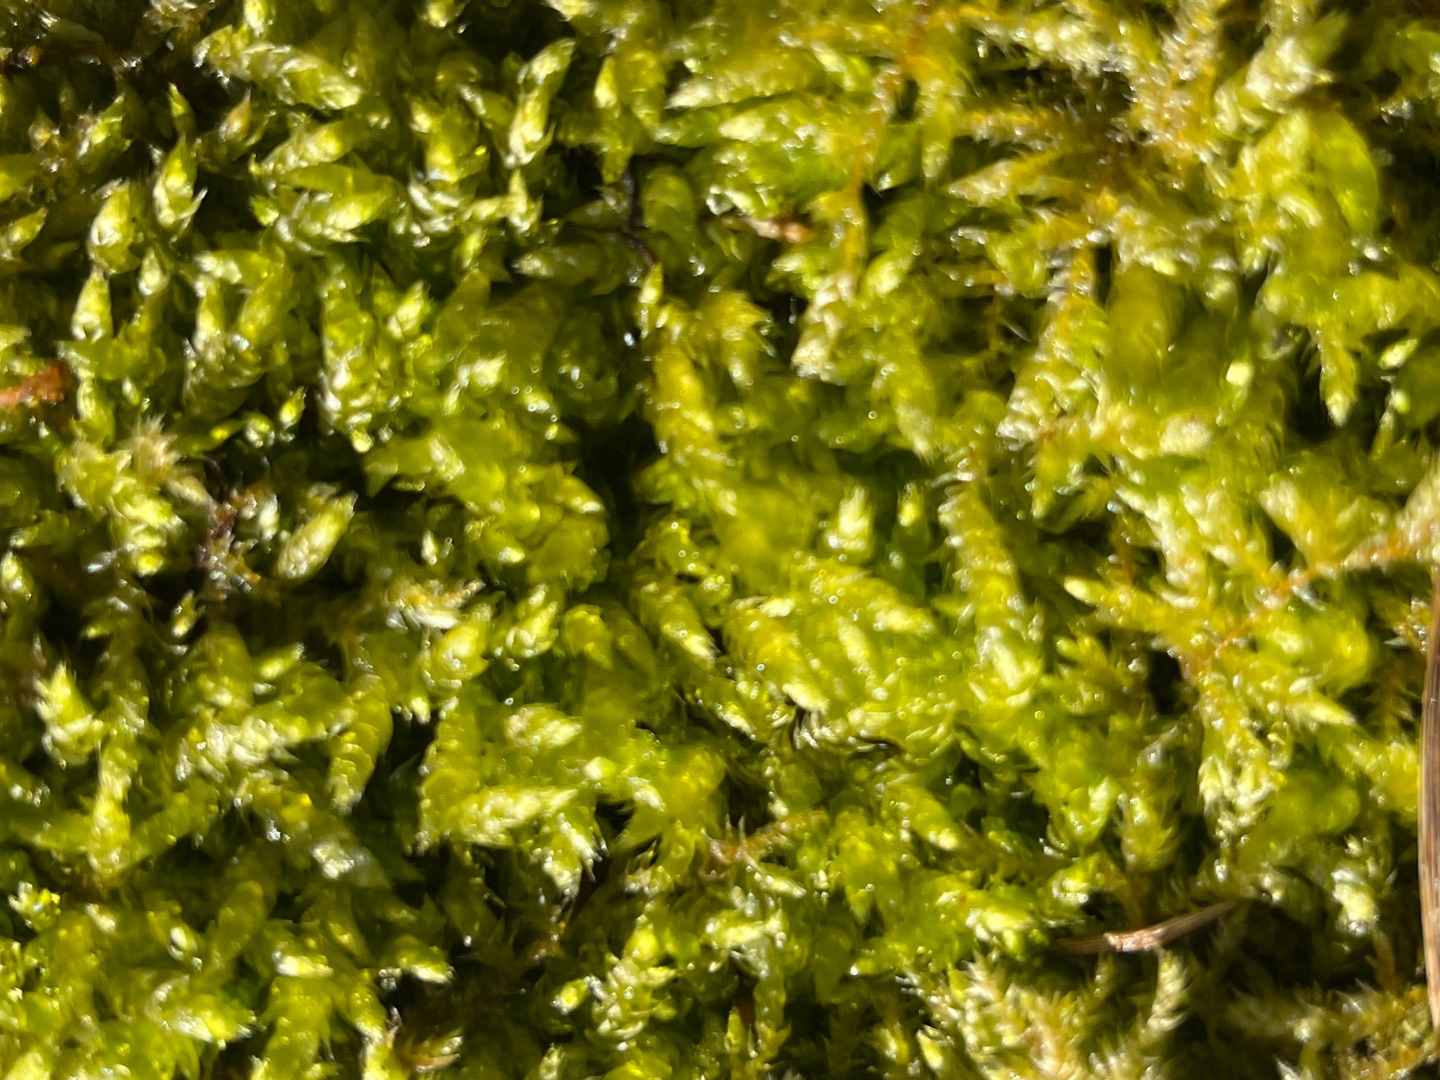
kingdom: Plantae
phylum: Bryophyta
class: Bryopsida
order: Hypnales
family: Brachytheciaceae
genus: Brachythecium
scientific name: Brachythecium
